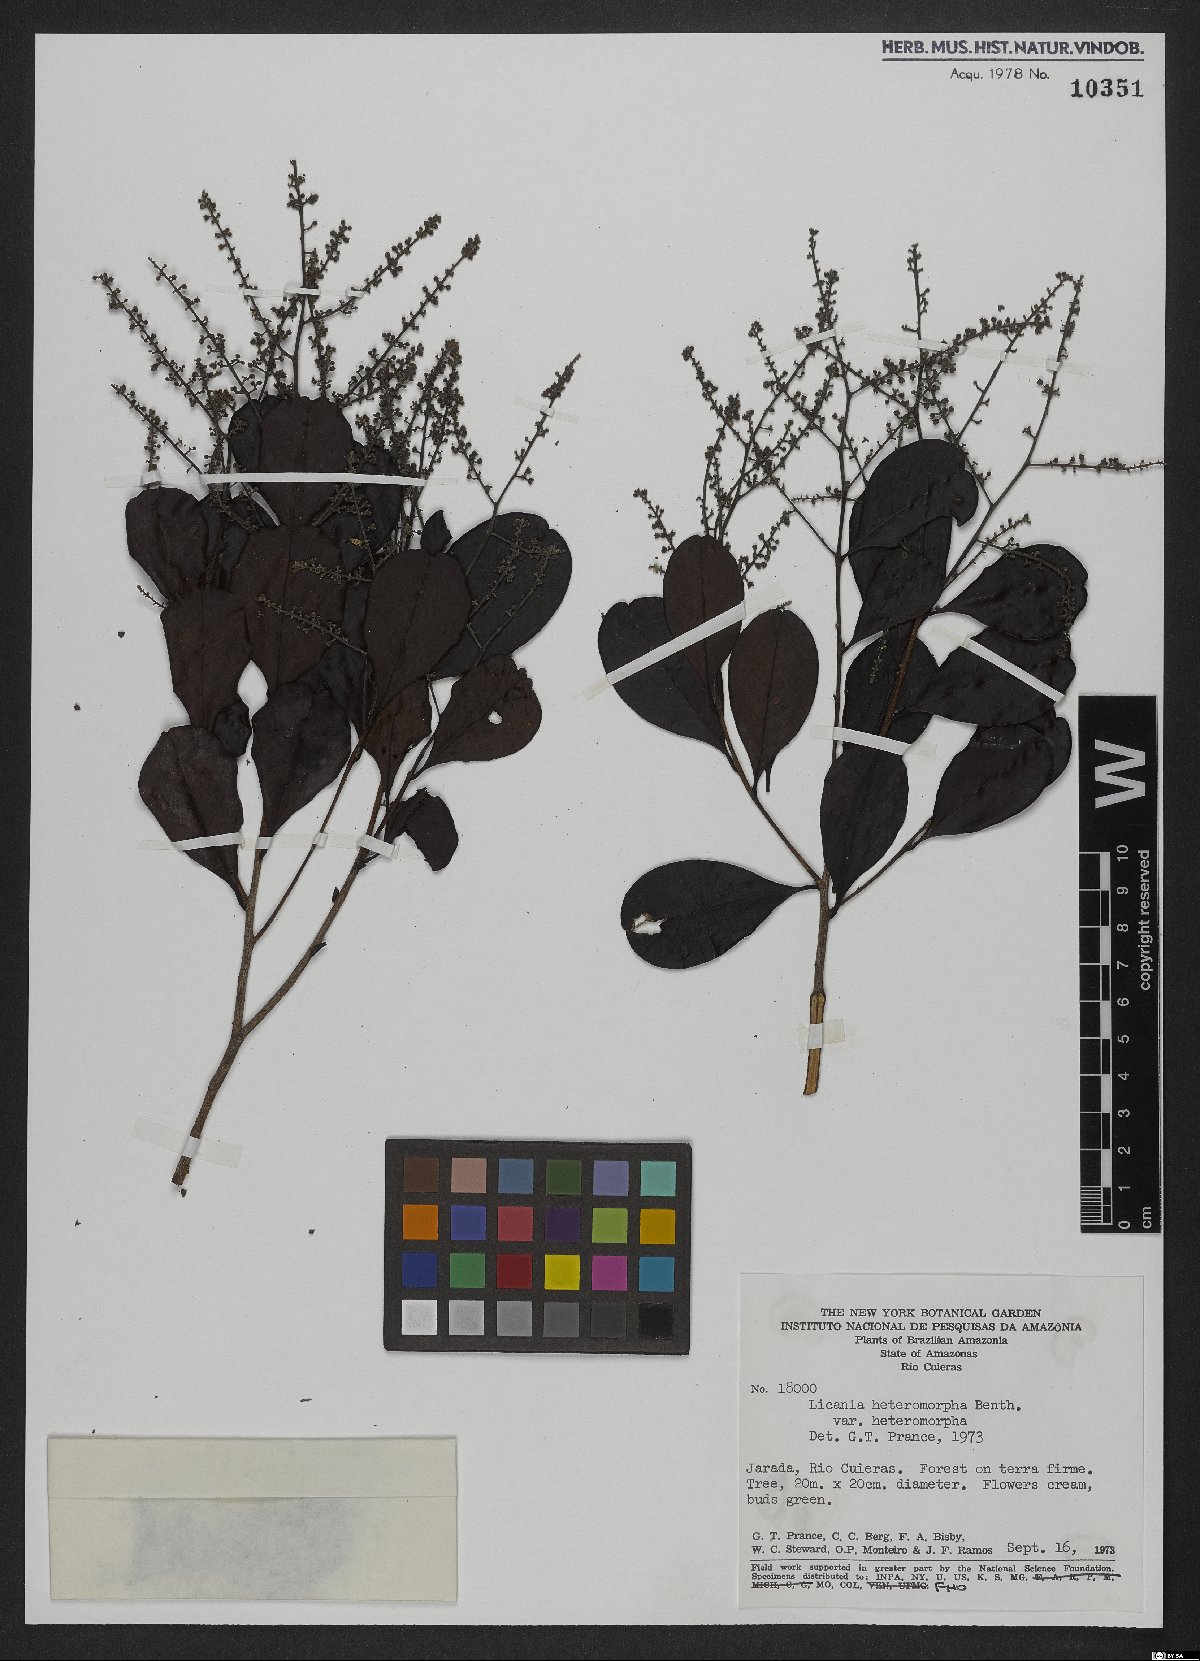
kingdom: Plantae
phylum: Tracheophyta
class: Magnoliopsida
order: Malpighiales
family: Chrysobalanaceae
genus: Hymenopus
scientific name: Hymenopus heteromorphus
